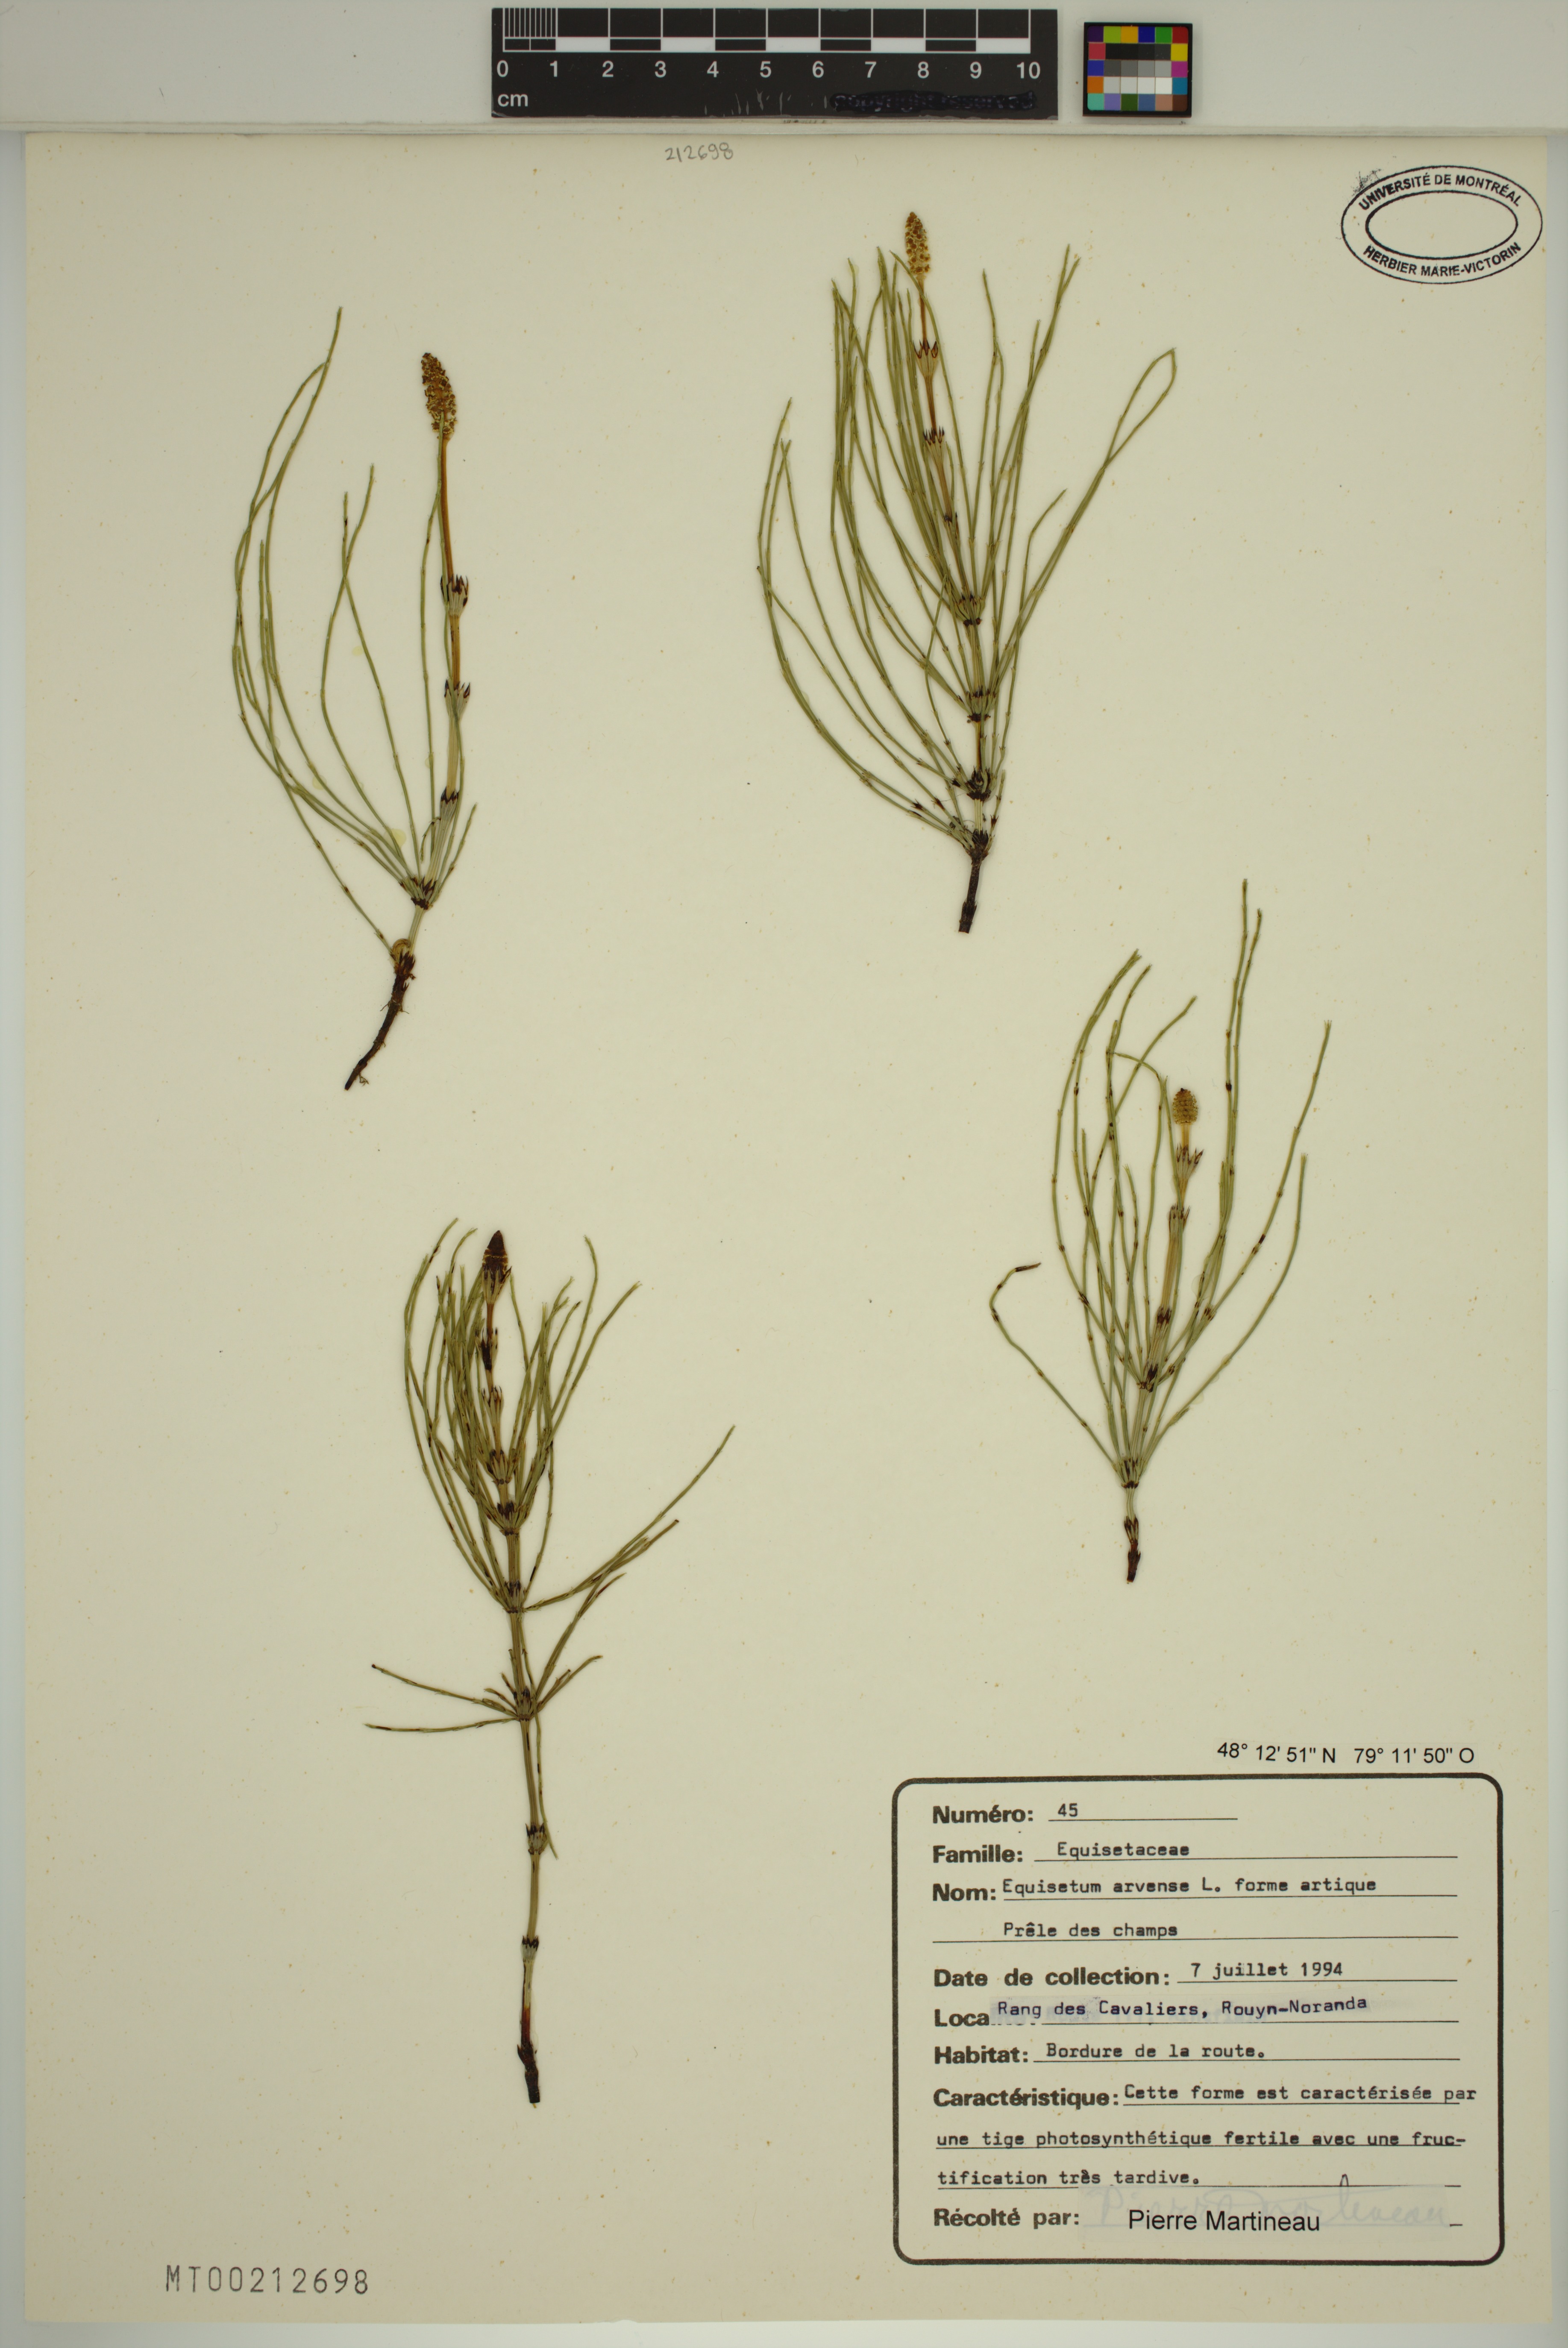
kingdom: Plantae
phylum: Tracheophyta
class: Polypodiopsida
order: Equisetales
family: Equisetaceae
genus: Equisetum
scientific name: Equisetum arvense
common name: Field horsetail
